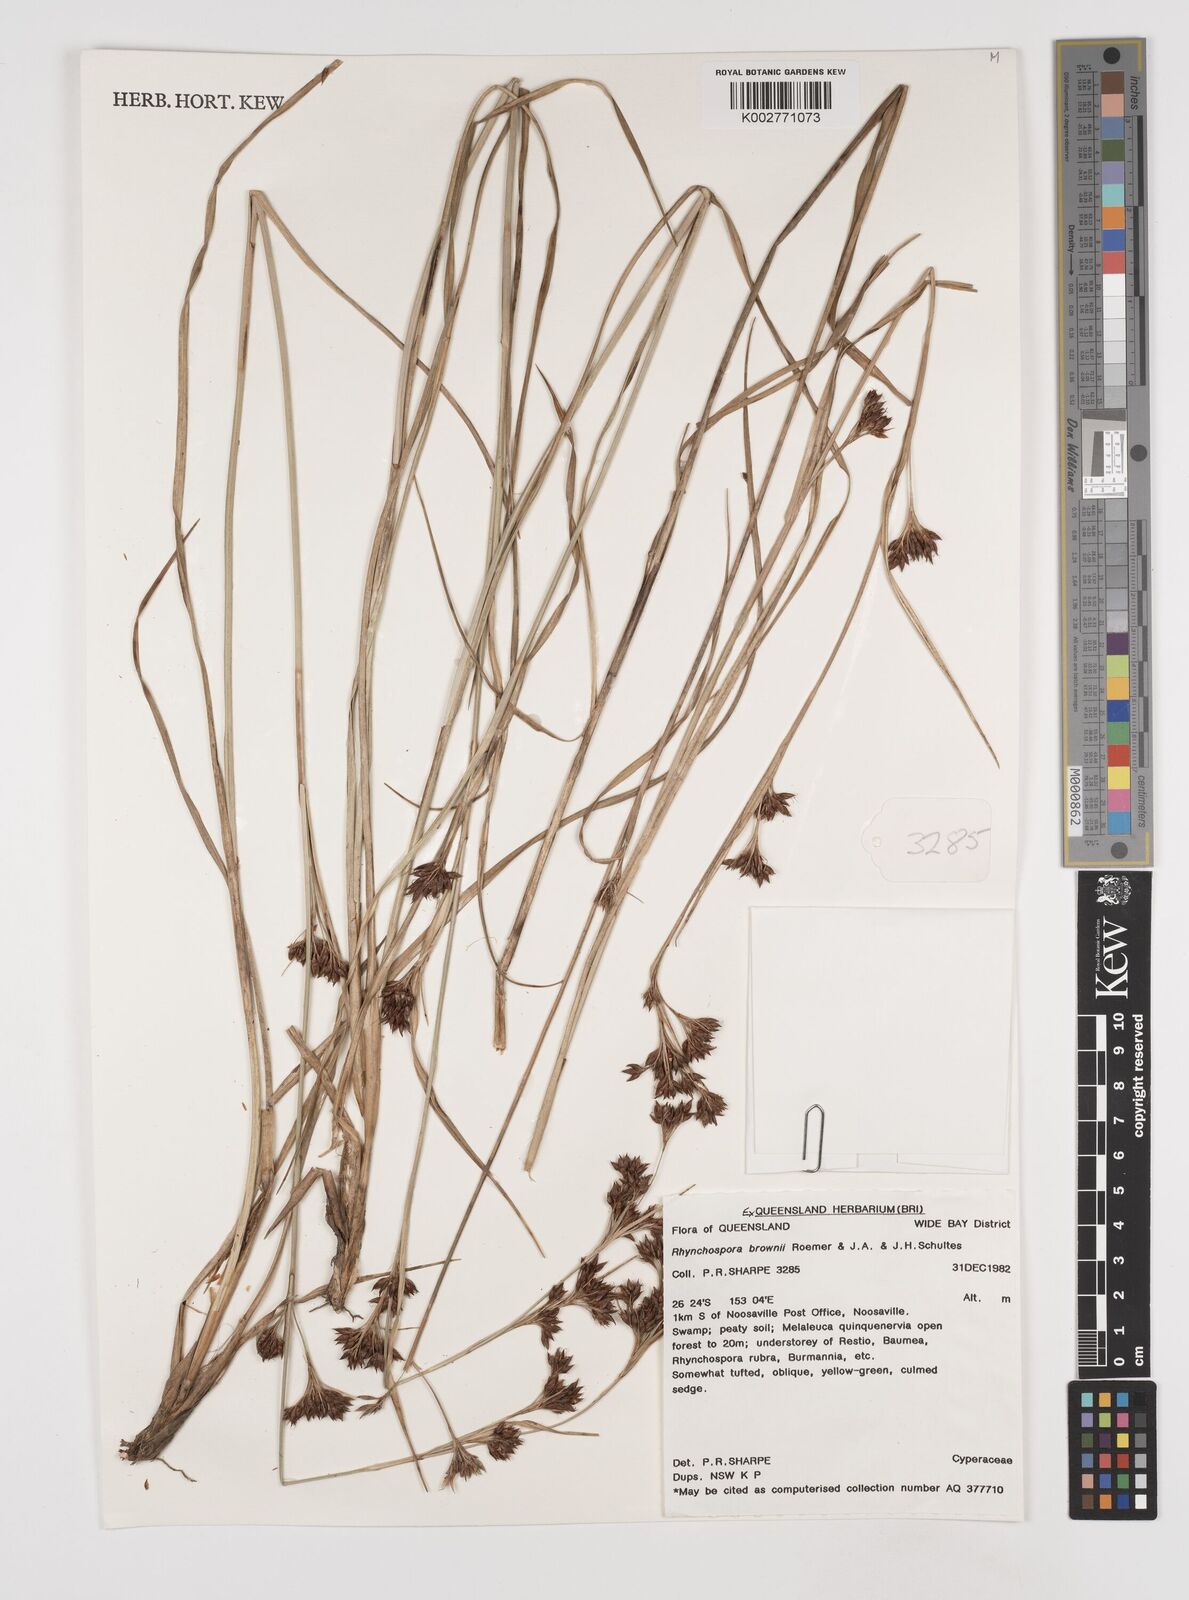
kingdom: Plantae
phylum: Tracheophyta
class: Liliopsida
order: Poales
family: Cyperaceae
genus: Rhynchospora
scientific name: Rhynchospora rugosa
